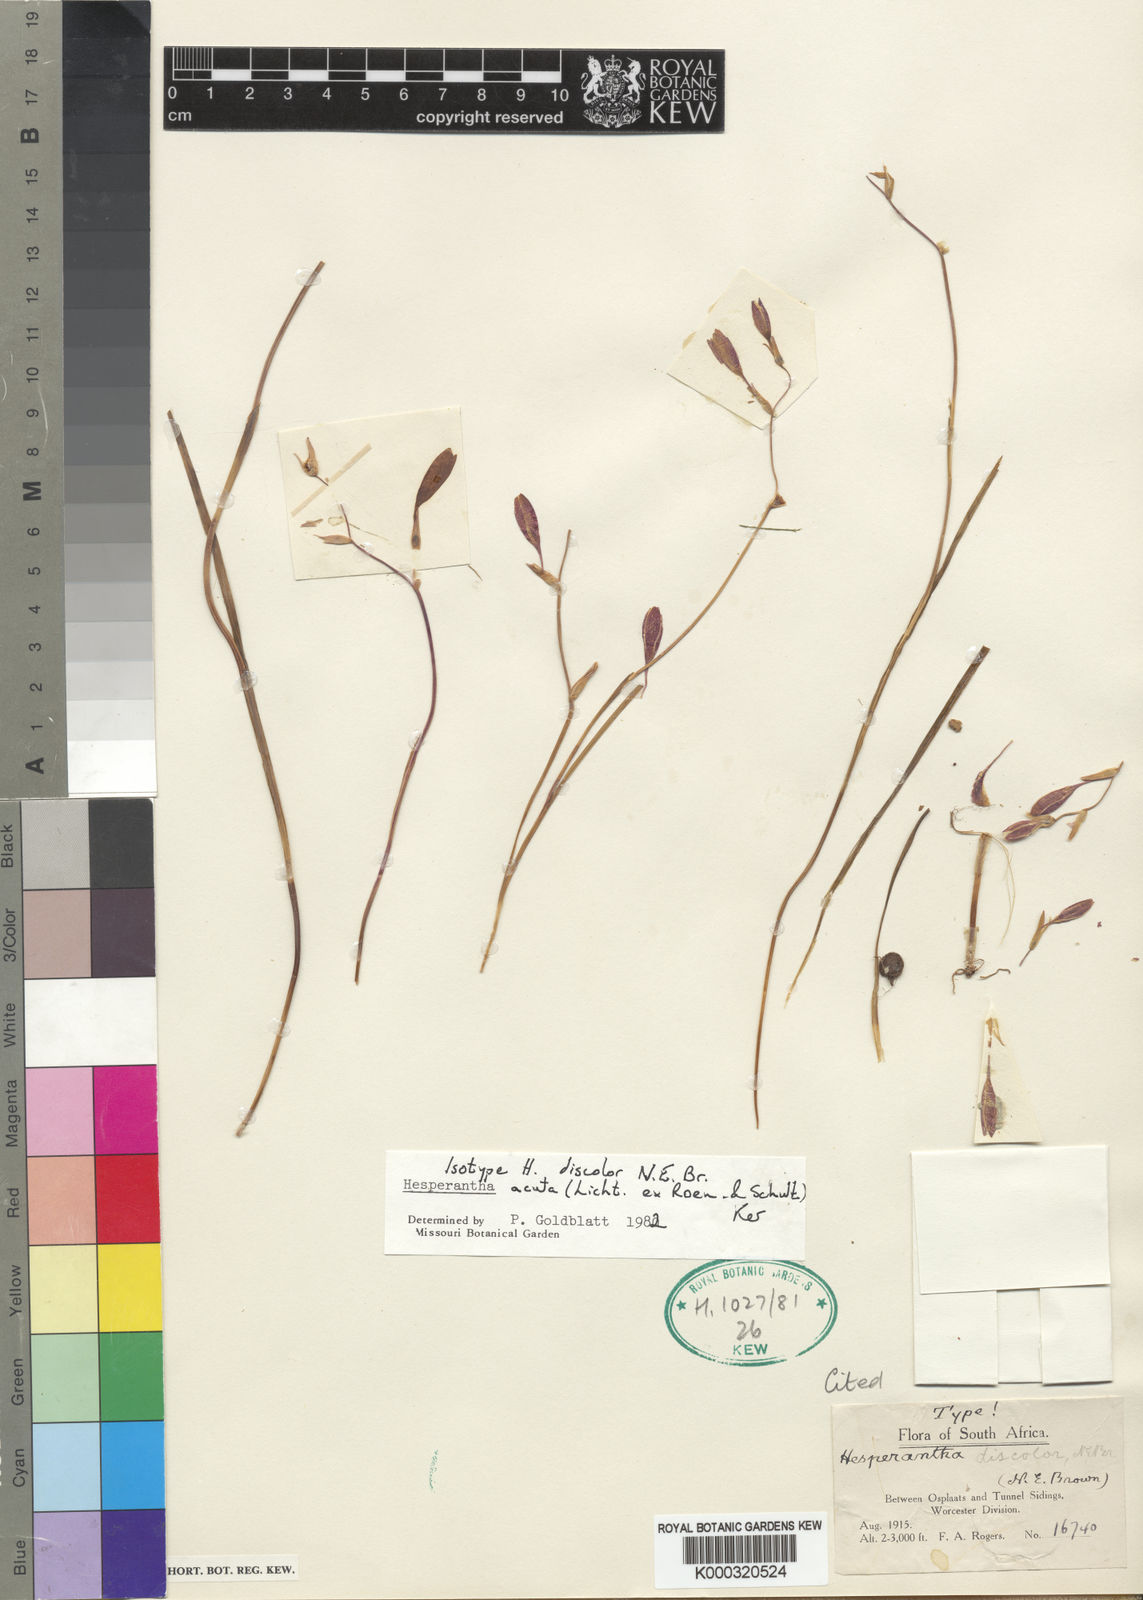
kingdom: Plantae
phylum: Tracheophyta
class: Liliopsida
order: Asparagales
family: Iridaceae
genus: Hesperantha
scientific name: Hesperantha acuta
